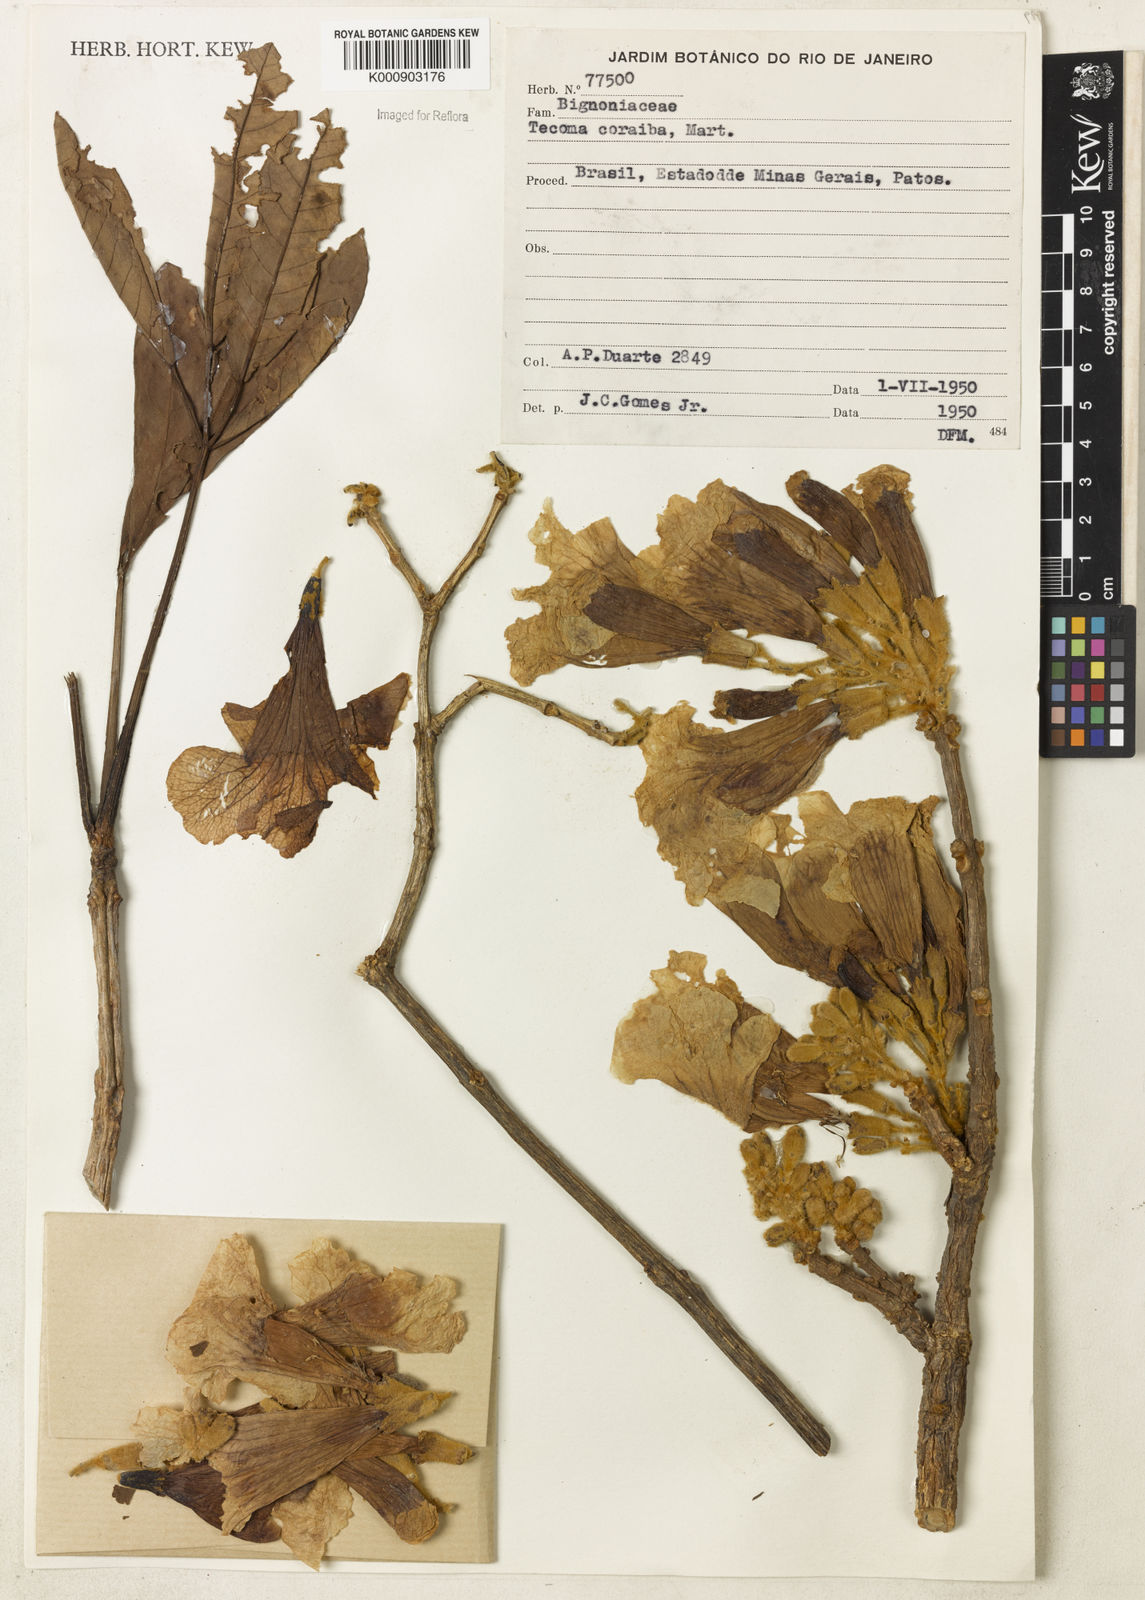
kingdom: Plantae
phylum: Tracheophyta
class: Magnoliopsida
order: Lamiales
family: Bignoniaceae
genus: Tecoma
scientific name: Tecoma
